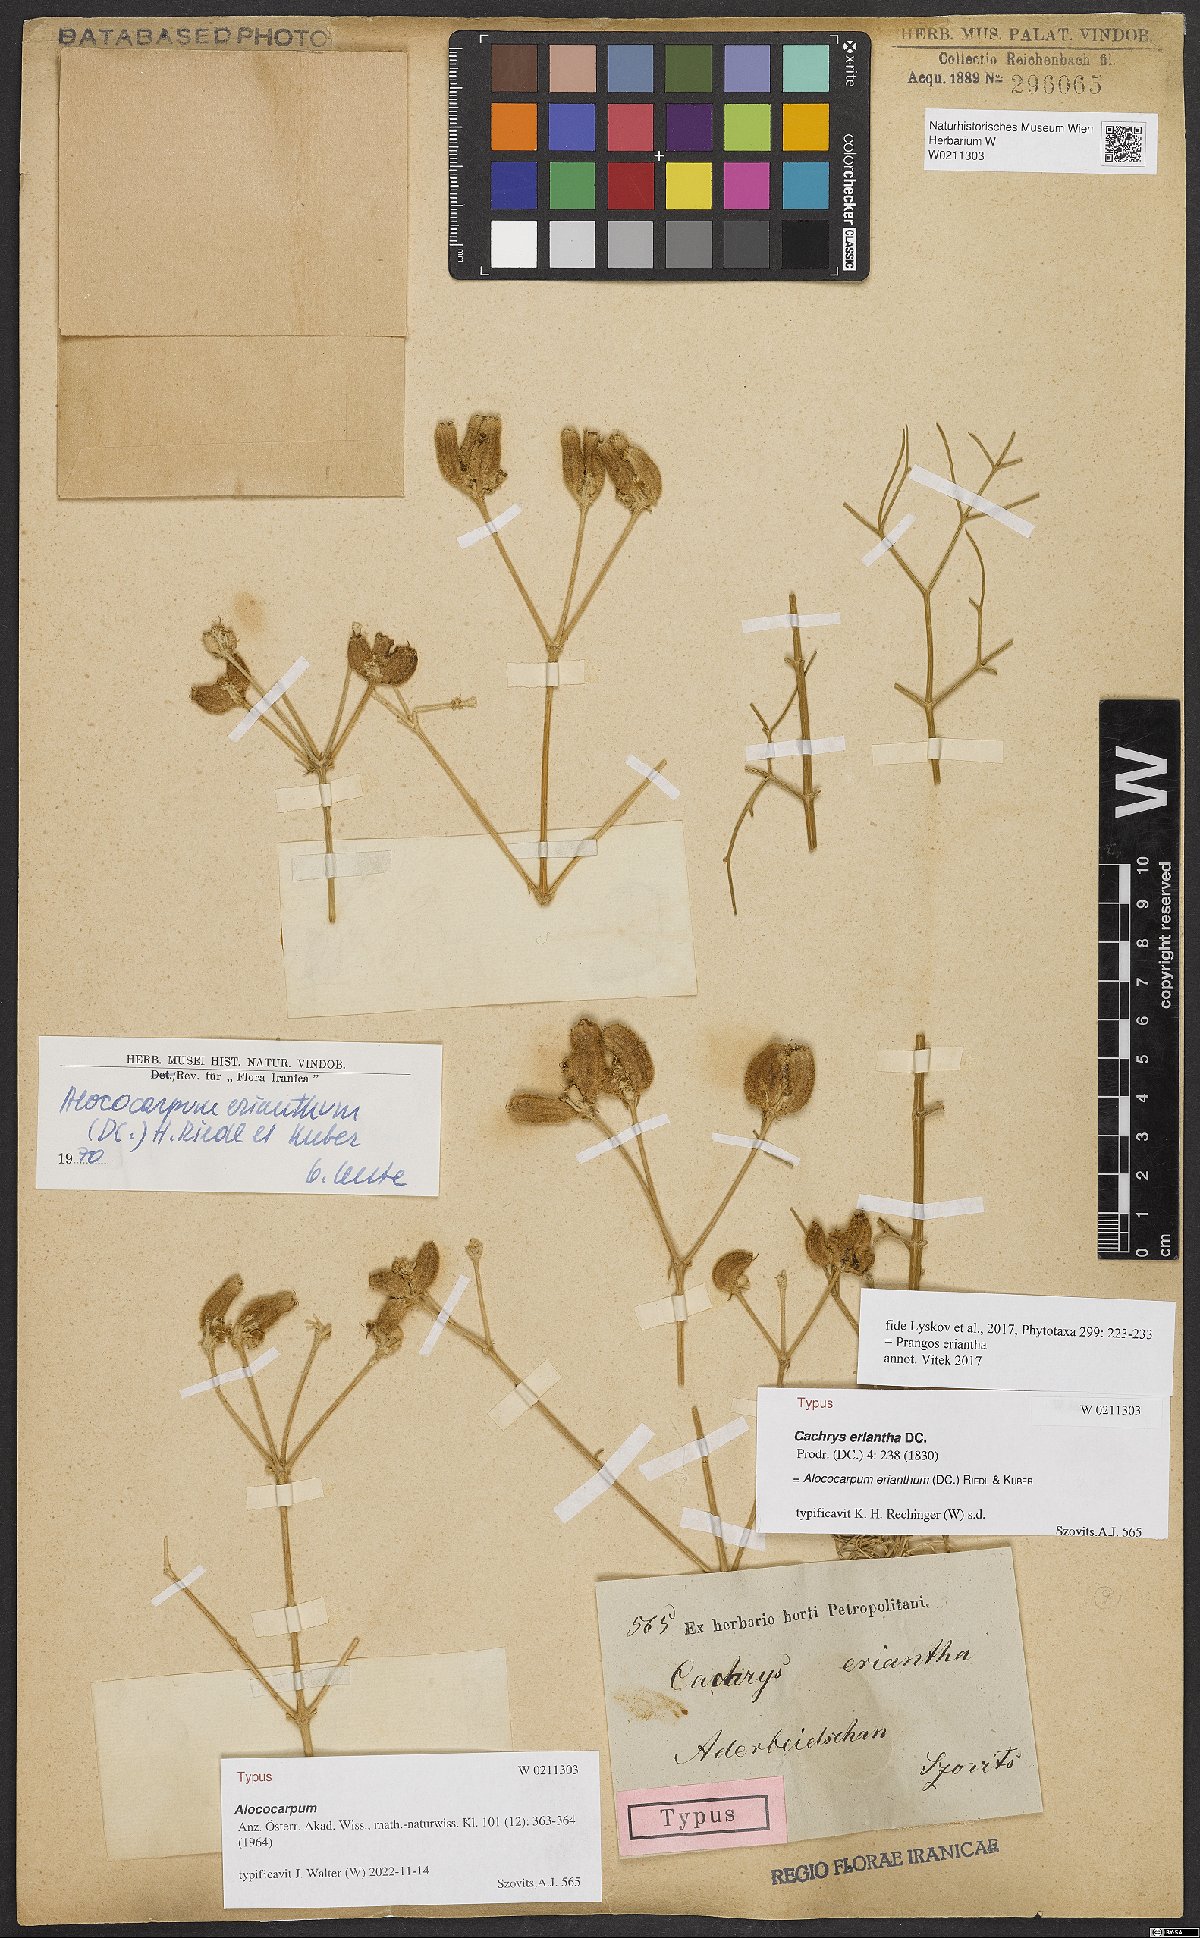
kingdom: Plantae
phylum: Tracheophyta
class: Magnoliopsida
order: Apiales
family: Apiaceae
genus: Prangos
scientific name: Prangos eriantha
